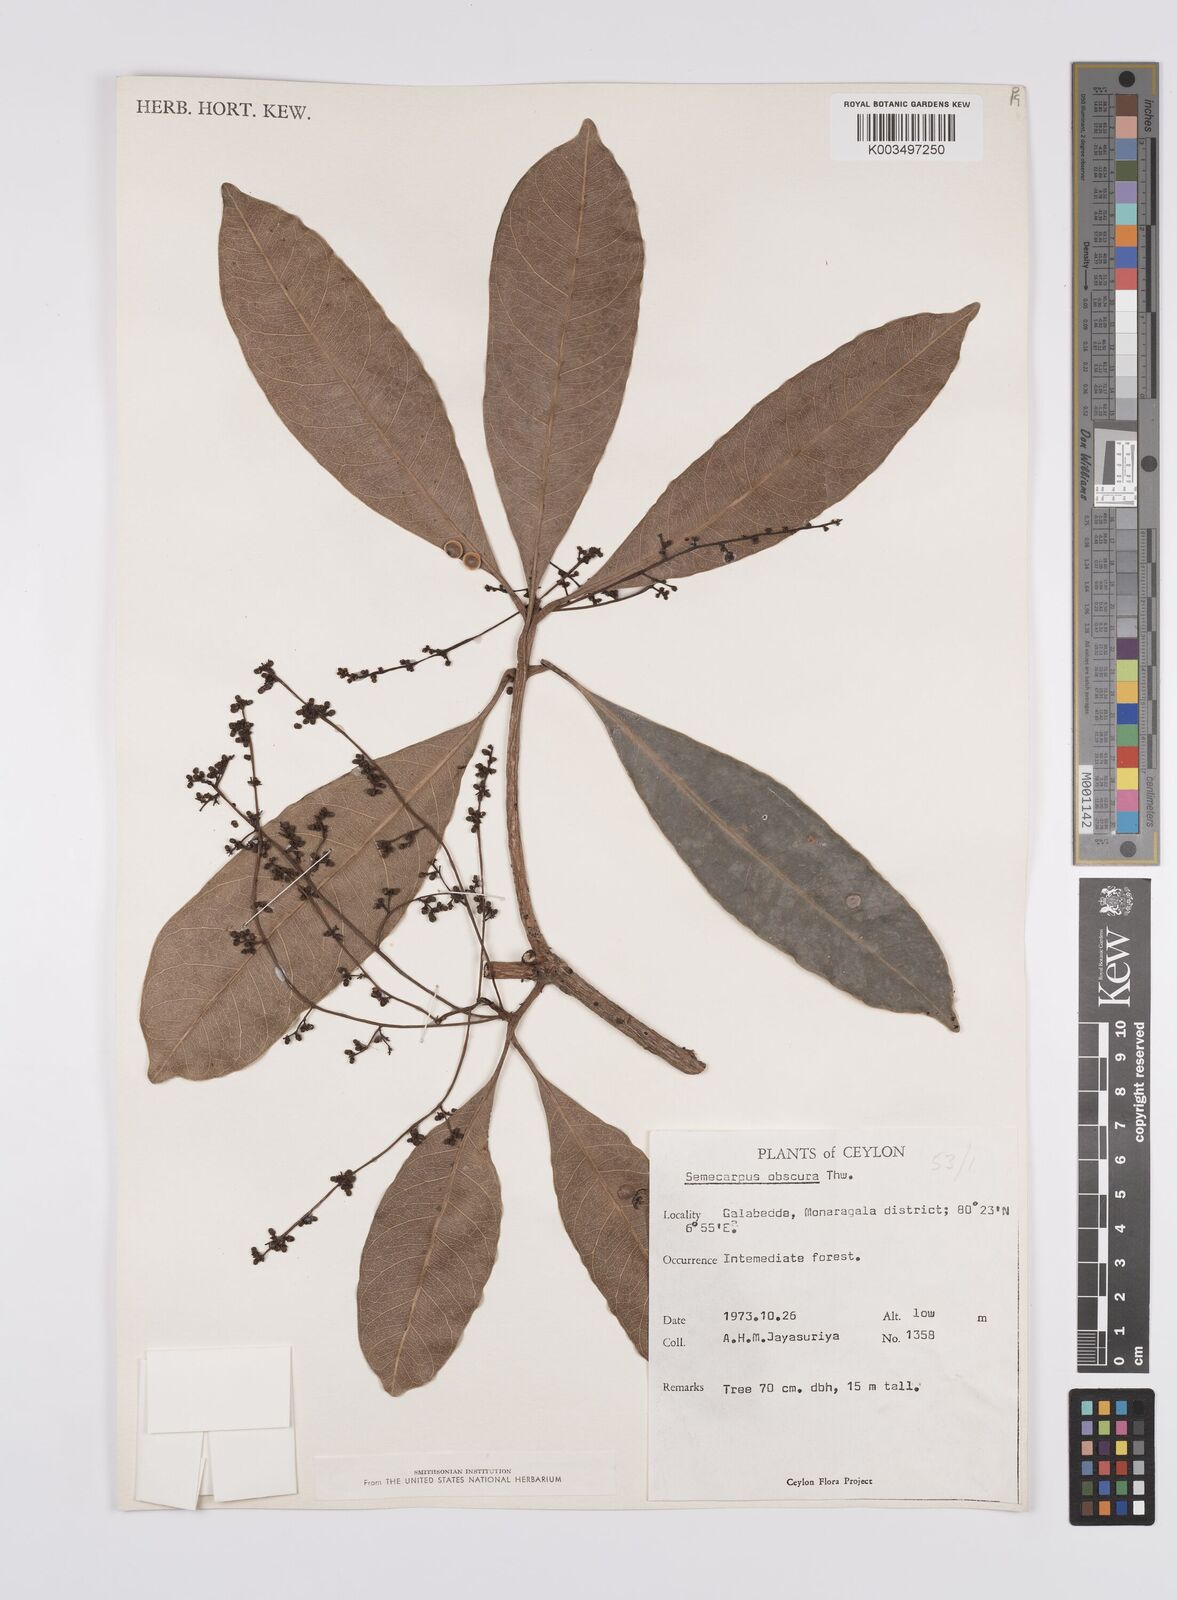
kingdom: Plantae
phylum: Tracheophyta
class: Magnoliopsida
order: Sapindales
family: Anacardiaceae
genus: Semecarpus
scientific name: Semecarpus walkeri
